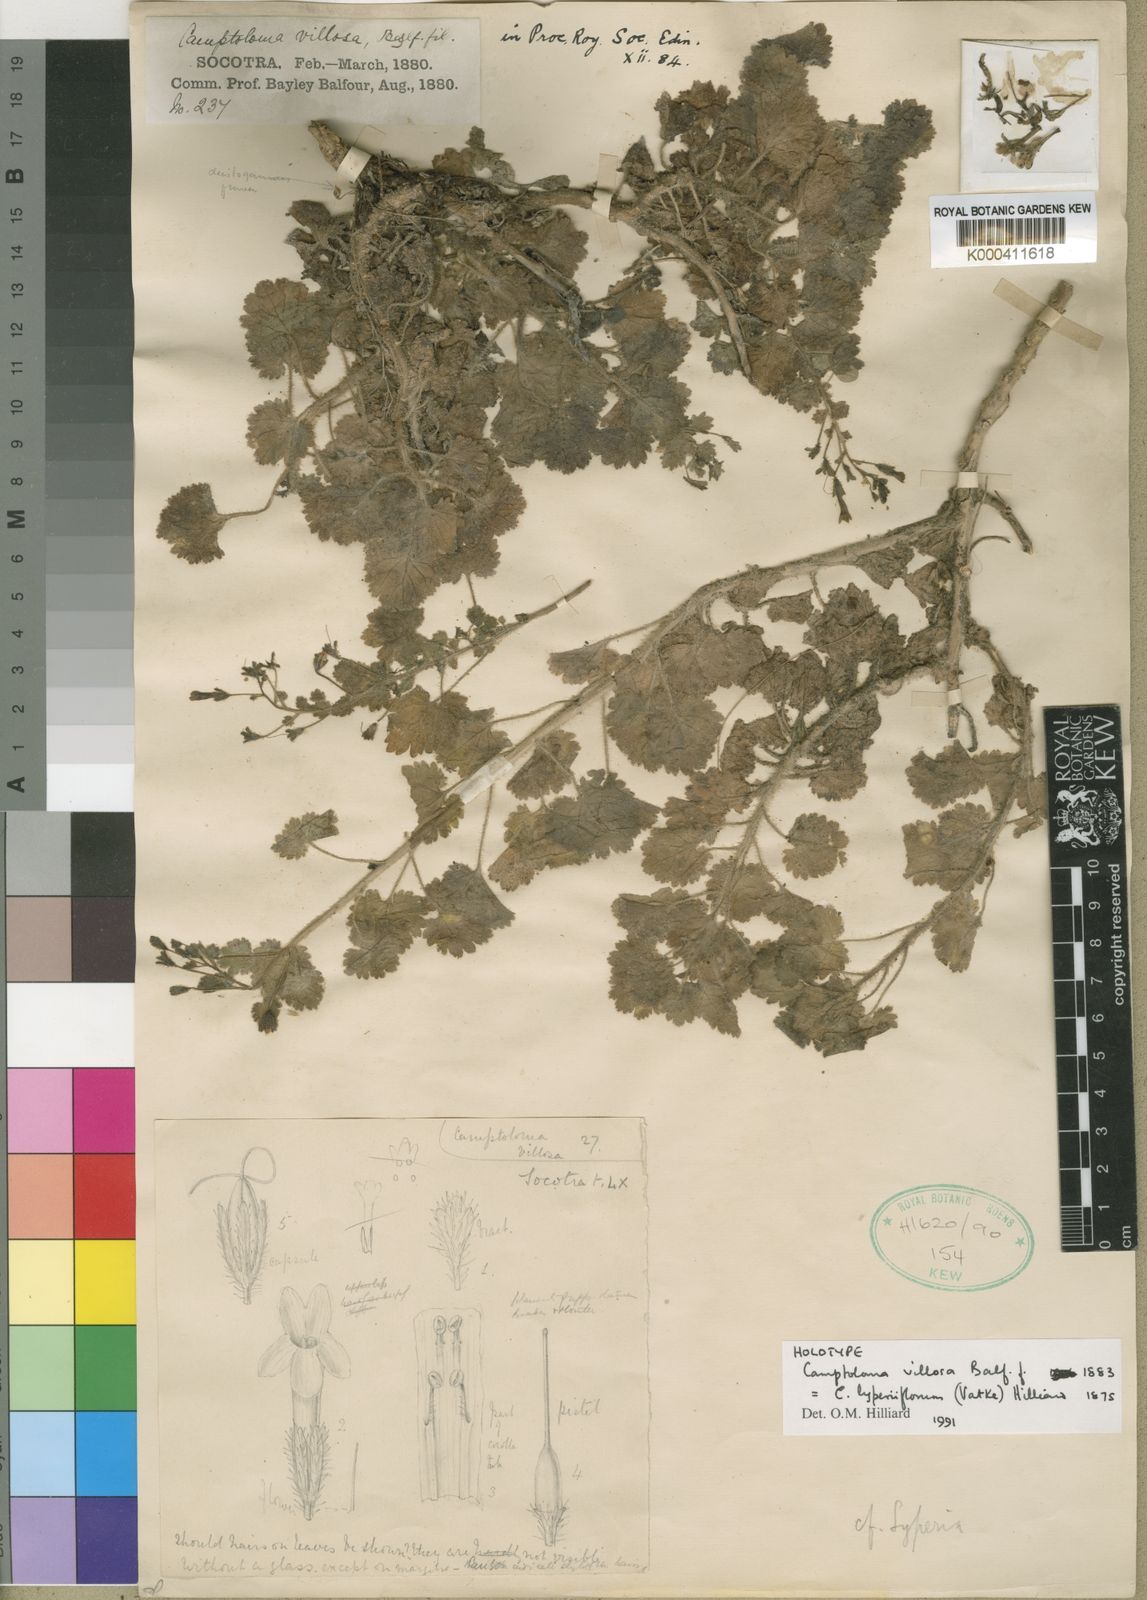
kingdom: Plantae
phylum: Tracheophyta
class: Magnoliopsida
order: Lamiales
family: Scrophulariaceae
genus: Camptoloma
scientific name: Camptoloma lyperiiflorum
